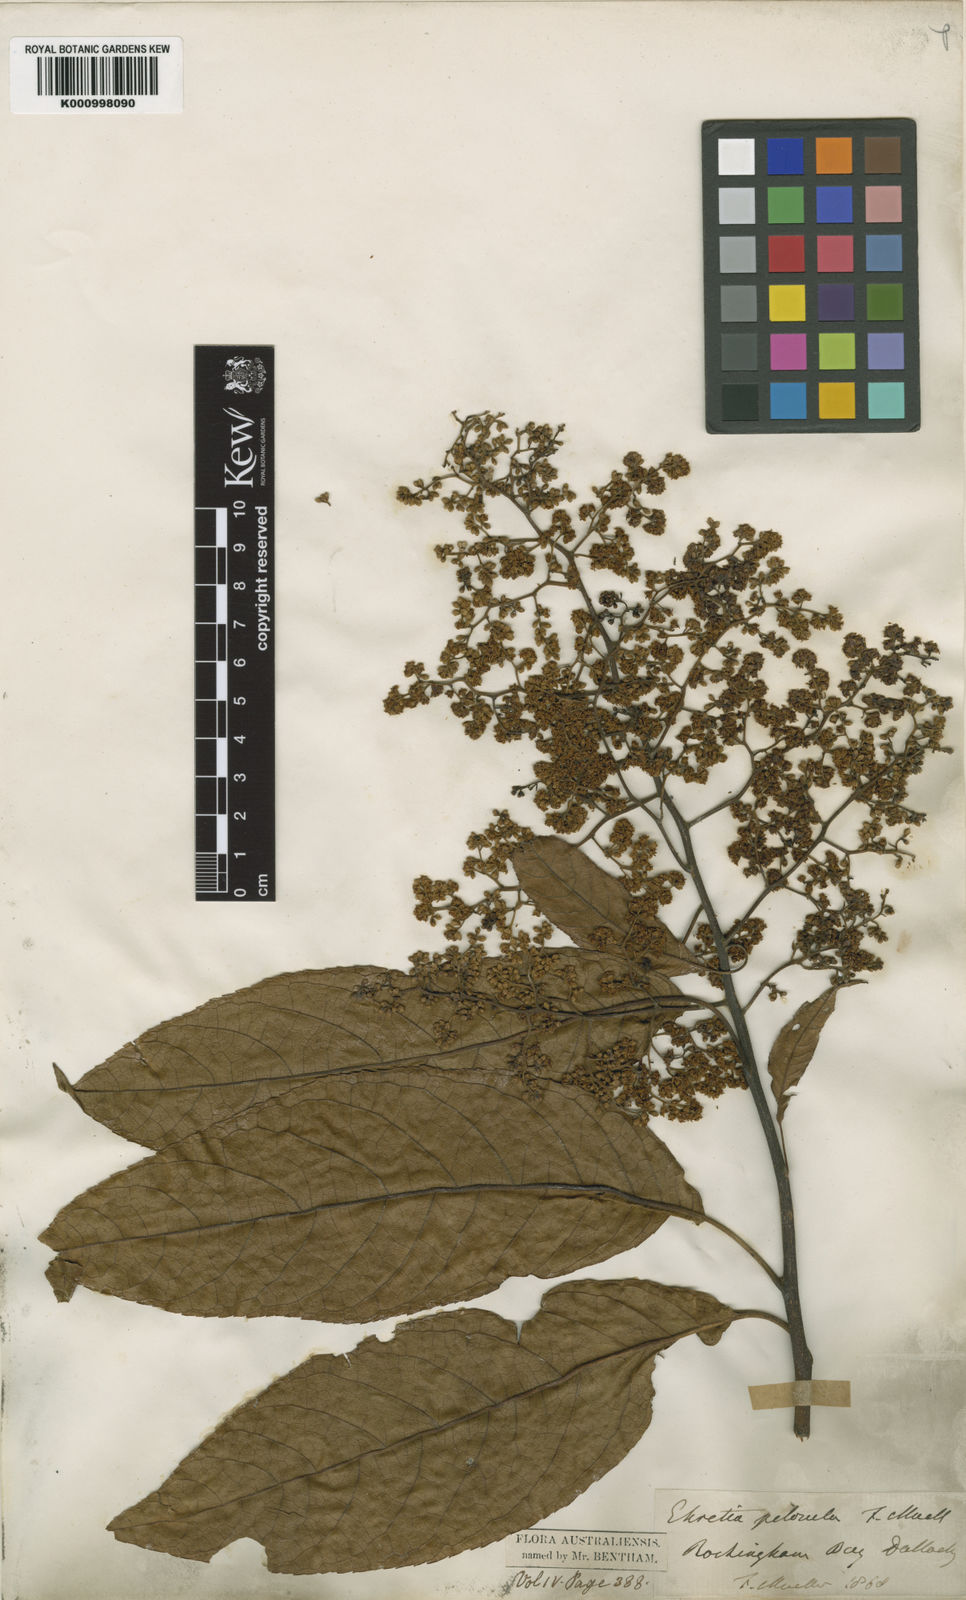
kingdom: Plantae
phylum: Tracheophyta
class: Magnoliopsida
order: Boraginales
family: Ehretiaceae
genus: Ehretia
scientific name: Ehretia acuminata
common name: Kodo wood
